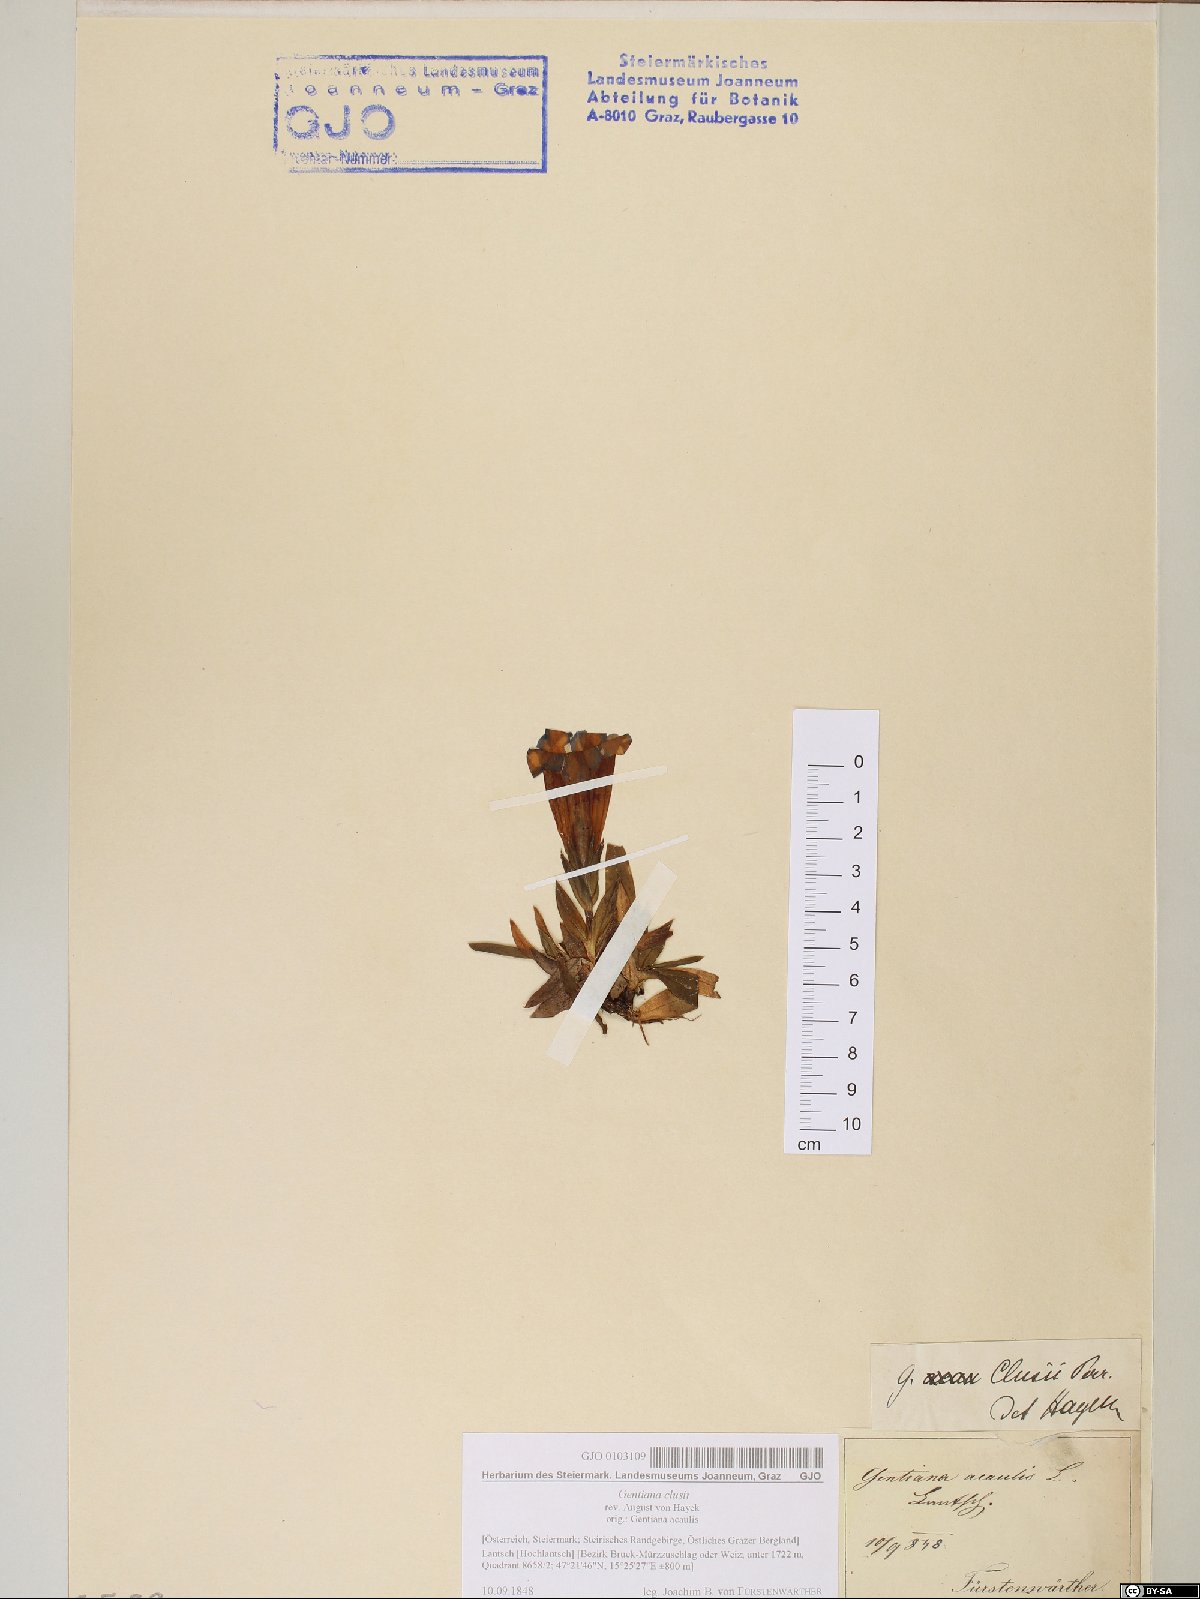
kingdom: Plantae
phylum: Tracheophyta
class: Magnoliopsida
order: Gentianales
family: Gentianaceae
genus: Gentiana
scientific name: Gentiana clusii
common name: Trumpet gentian
